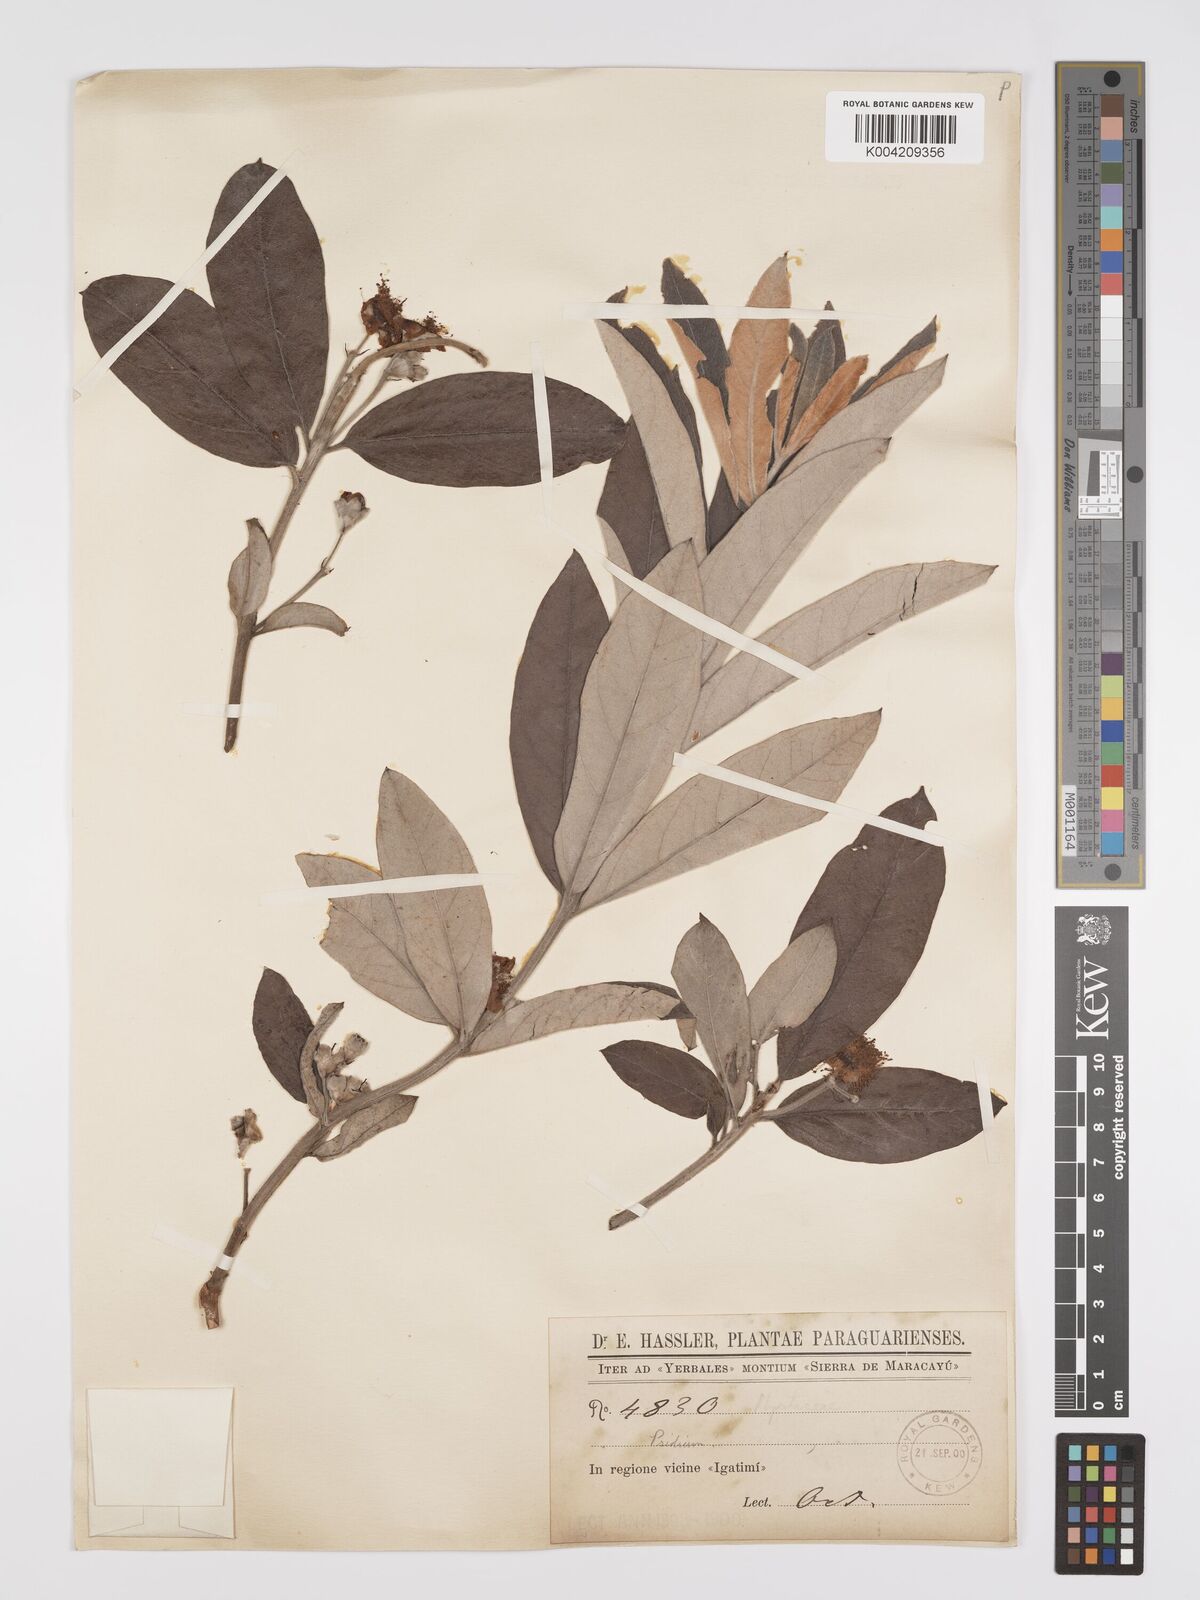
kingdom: Plantae
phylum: Tracheophyta
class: Magnoliopsida
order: Myrtales
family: Myrtaceae
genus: Psidium
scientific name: Psidium grandifolium
